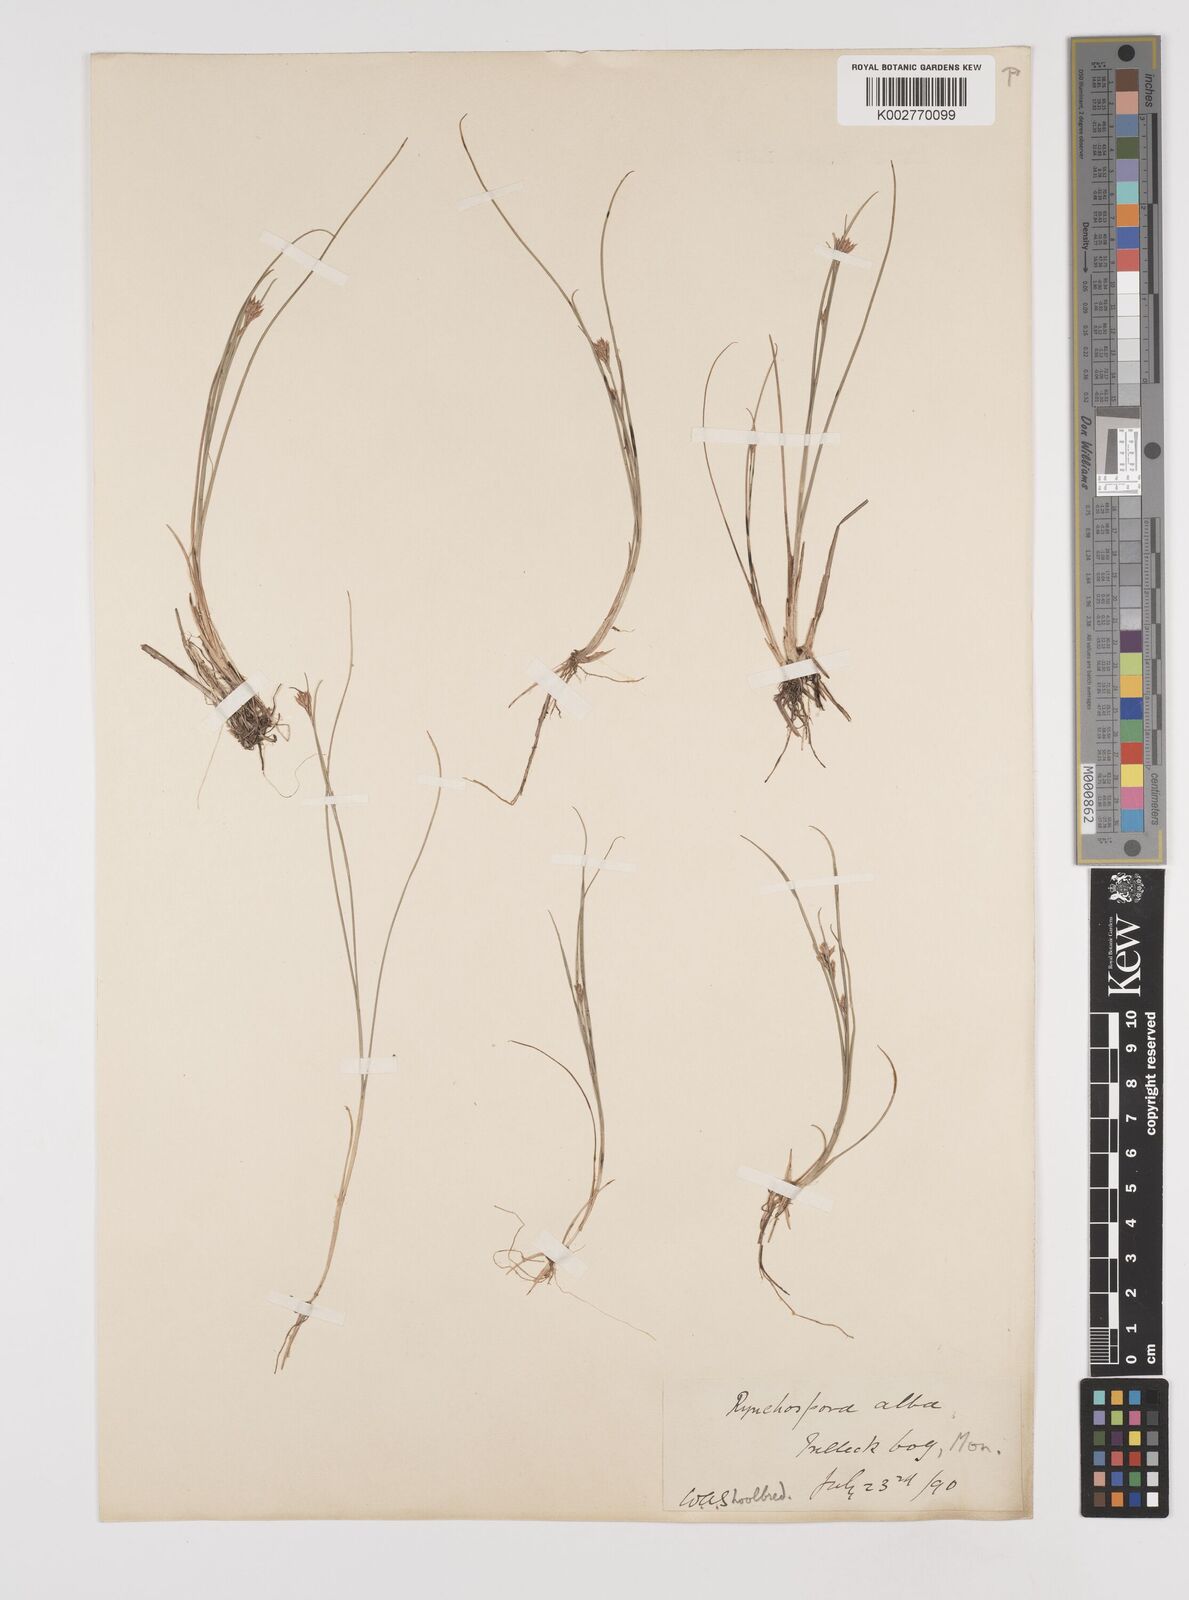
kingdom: Plantae
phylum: Tracheophyta
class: Liliopsida
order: Poales
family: Cyperaceae
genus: Rhynchospora
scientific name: Rhynchospora alba
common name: White beak-sedge
